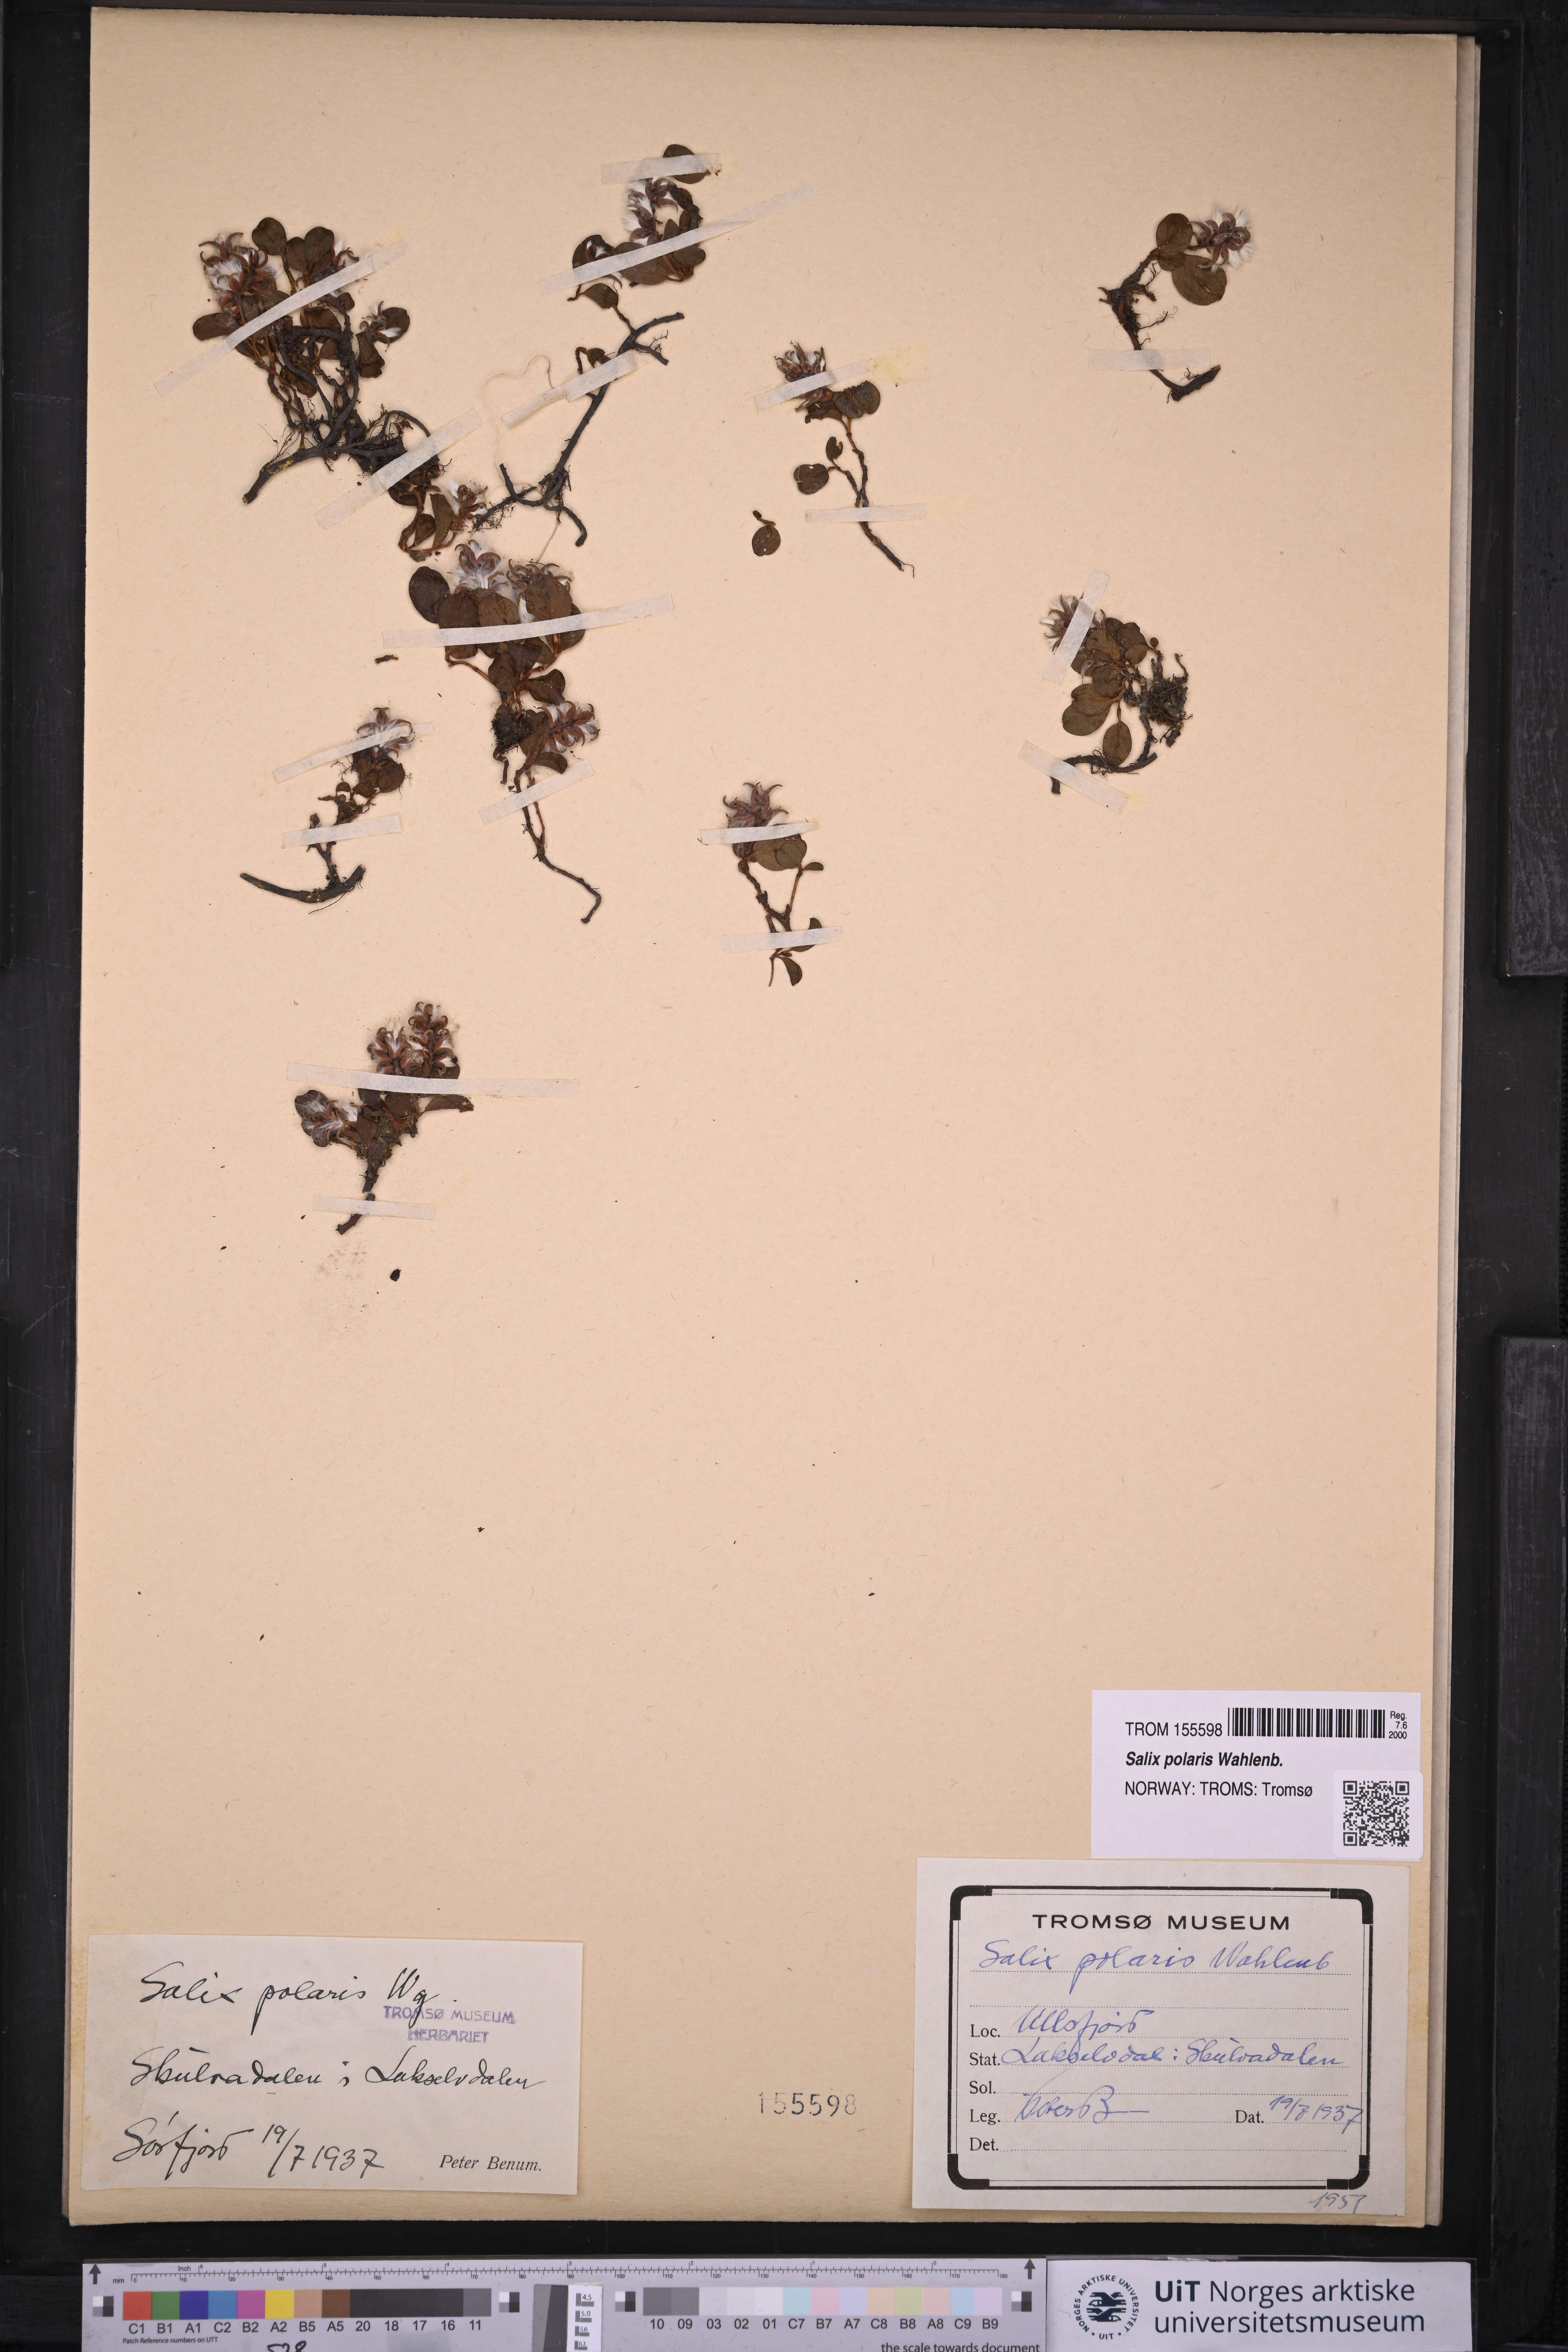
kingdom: Plantae
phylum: Tracheophyta
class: Magnoliopsida
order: Malpighiales
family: Salicaceae
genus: Salix
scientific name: Salix polaris
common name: Polar willow
